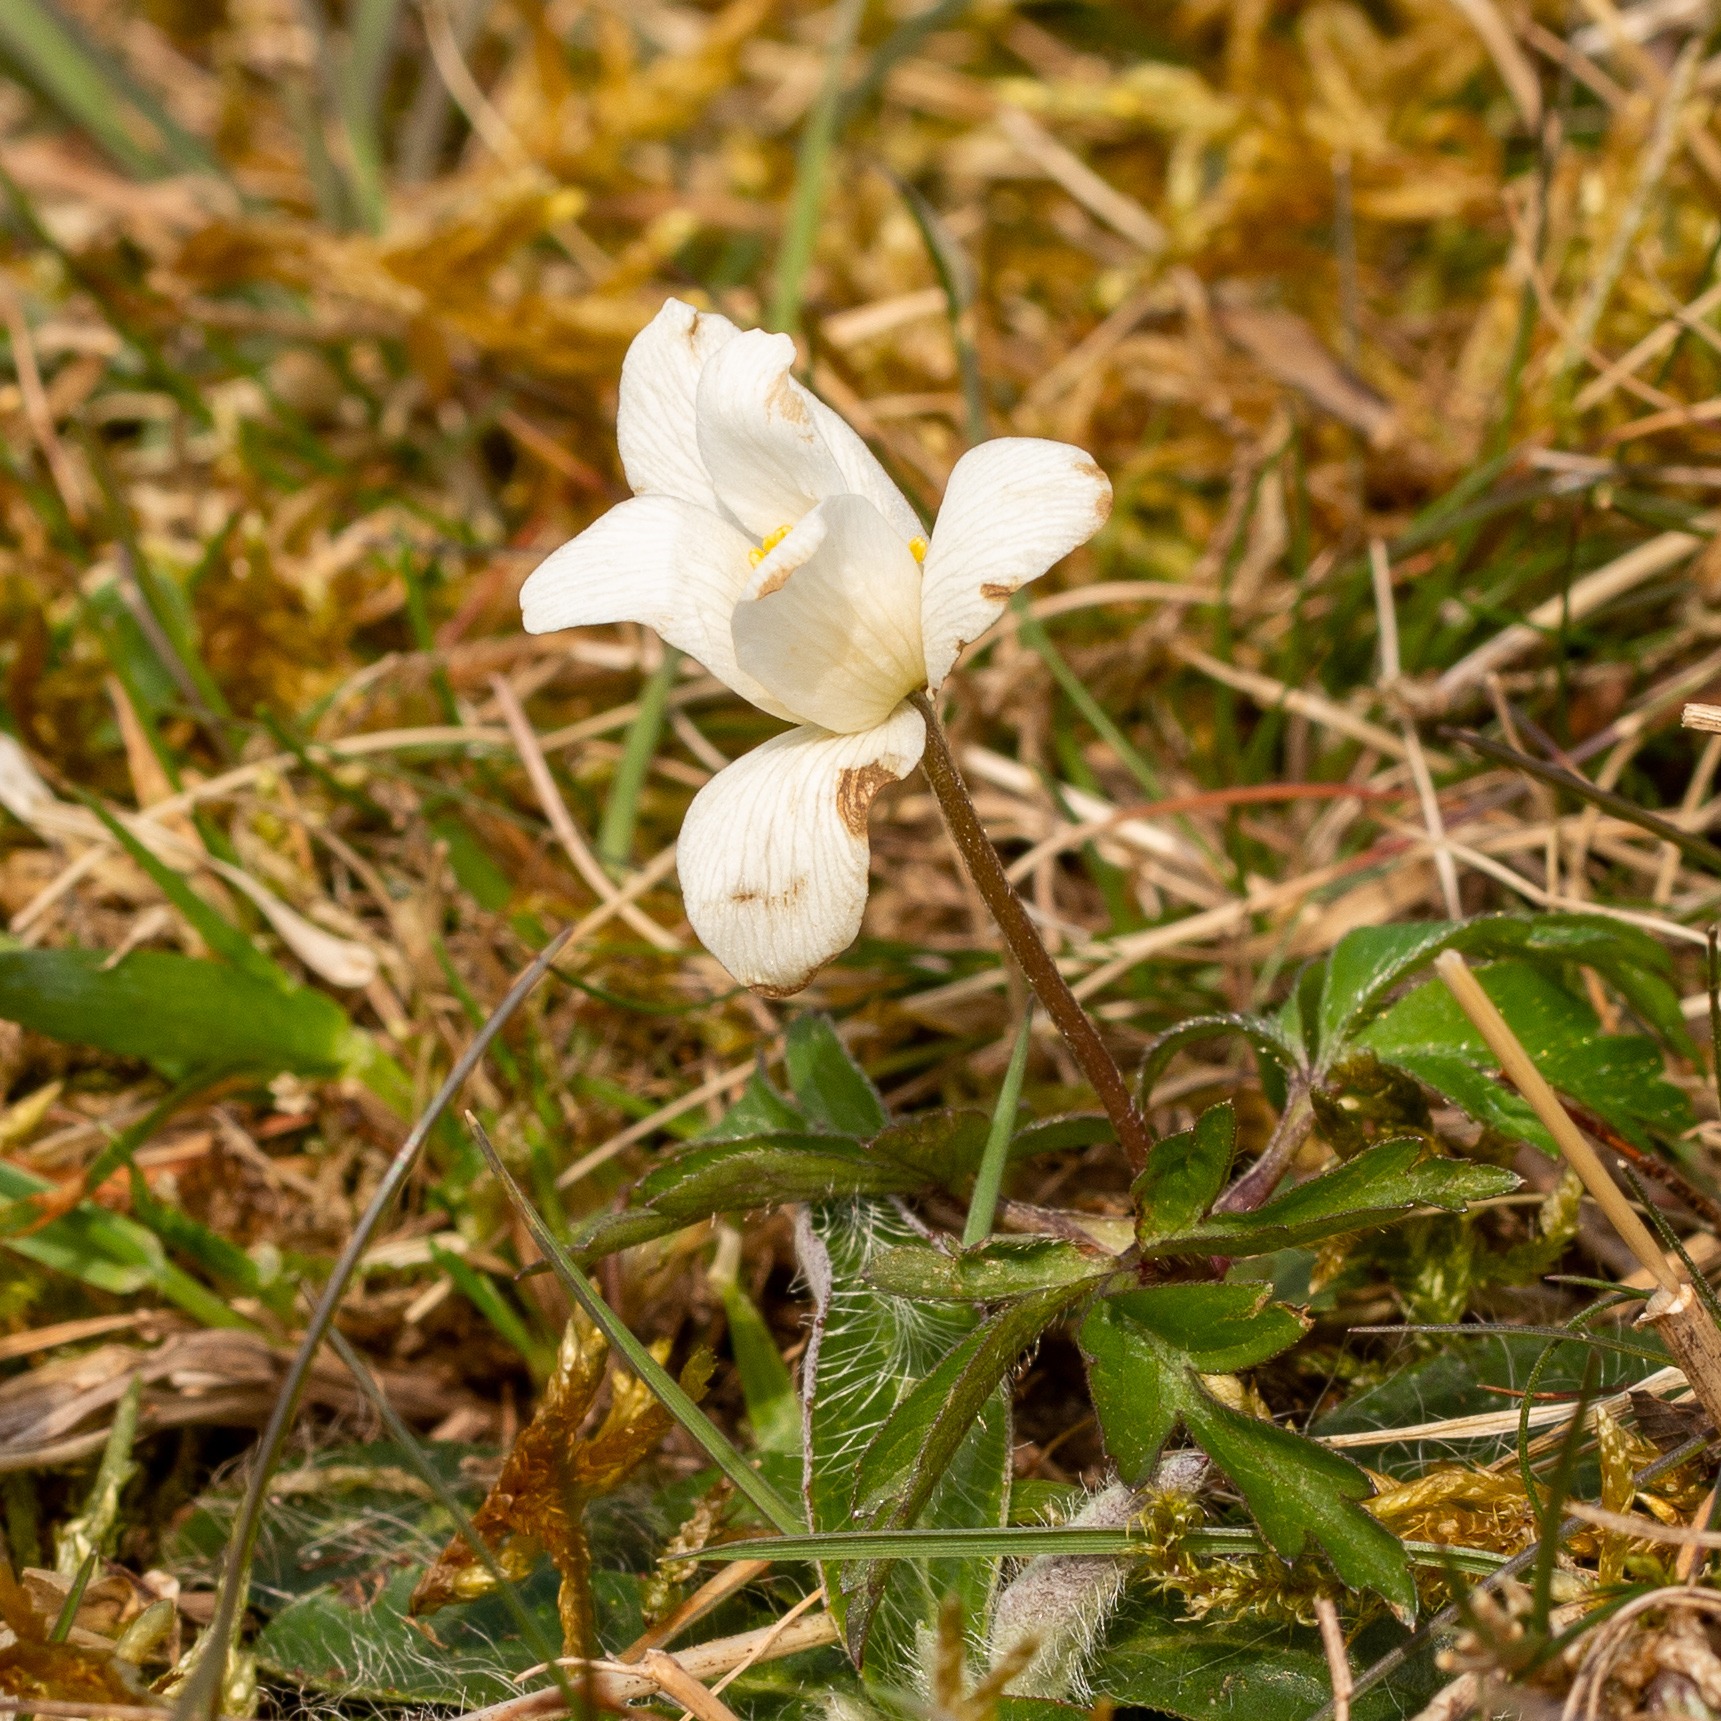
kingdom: Plantae
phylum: Tracheophyta
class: Magnoliopsida
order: Ranunculales
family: Ranunculaceae
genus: Anemone
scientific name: Anemone nemorosa
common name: Hvid anemone
